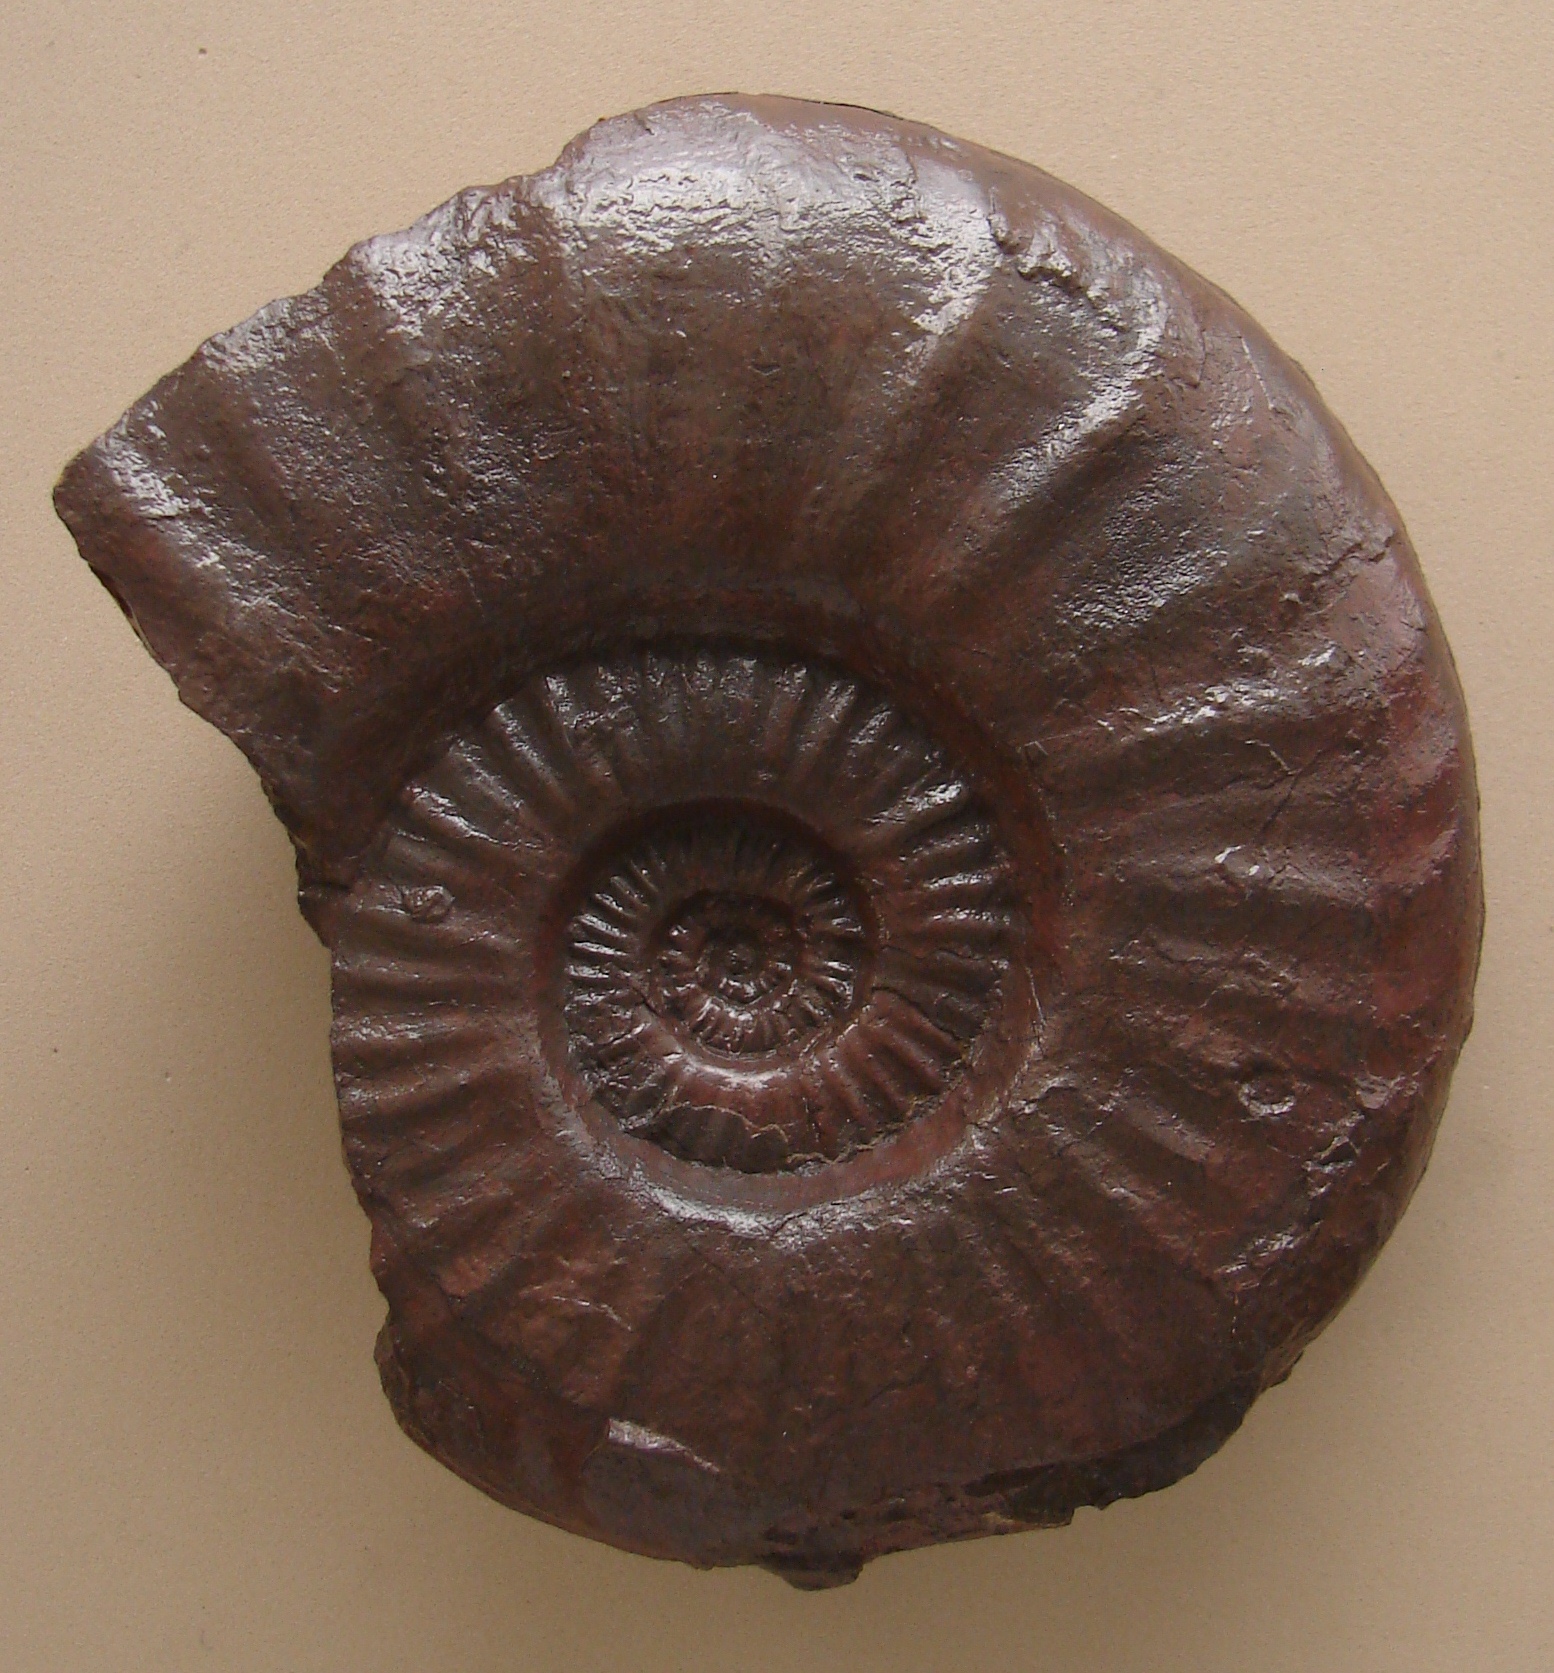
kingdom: Animalia
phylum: Mollusca
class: Cephalopoda
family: Amaltheidae
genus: Pleuroceras
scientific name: Pleuroceras solare
